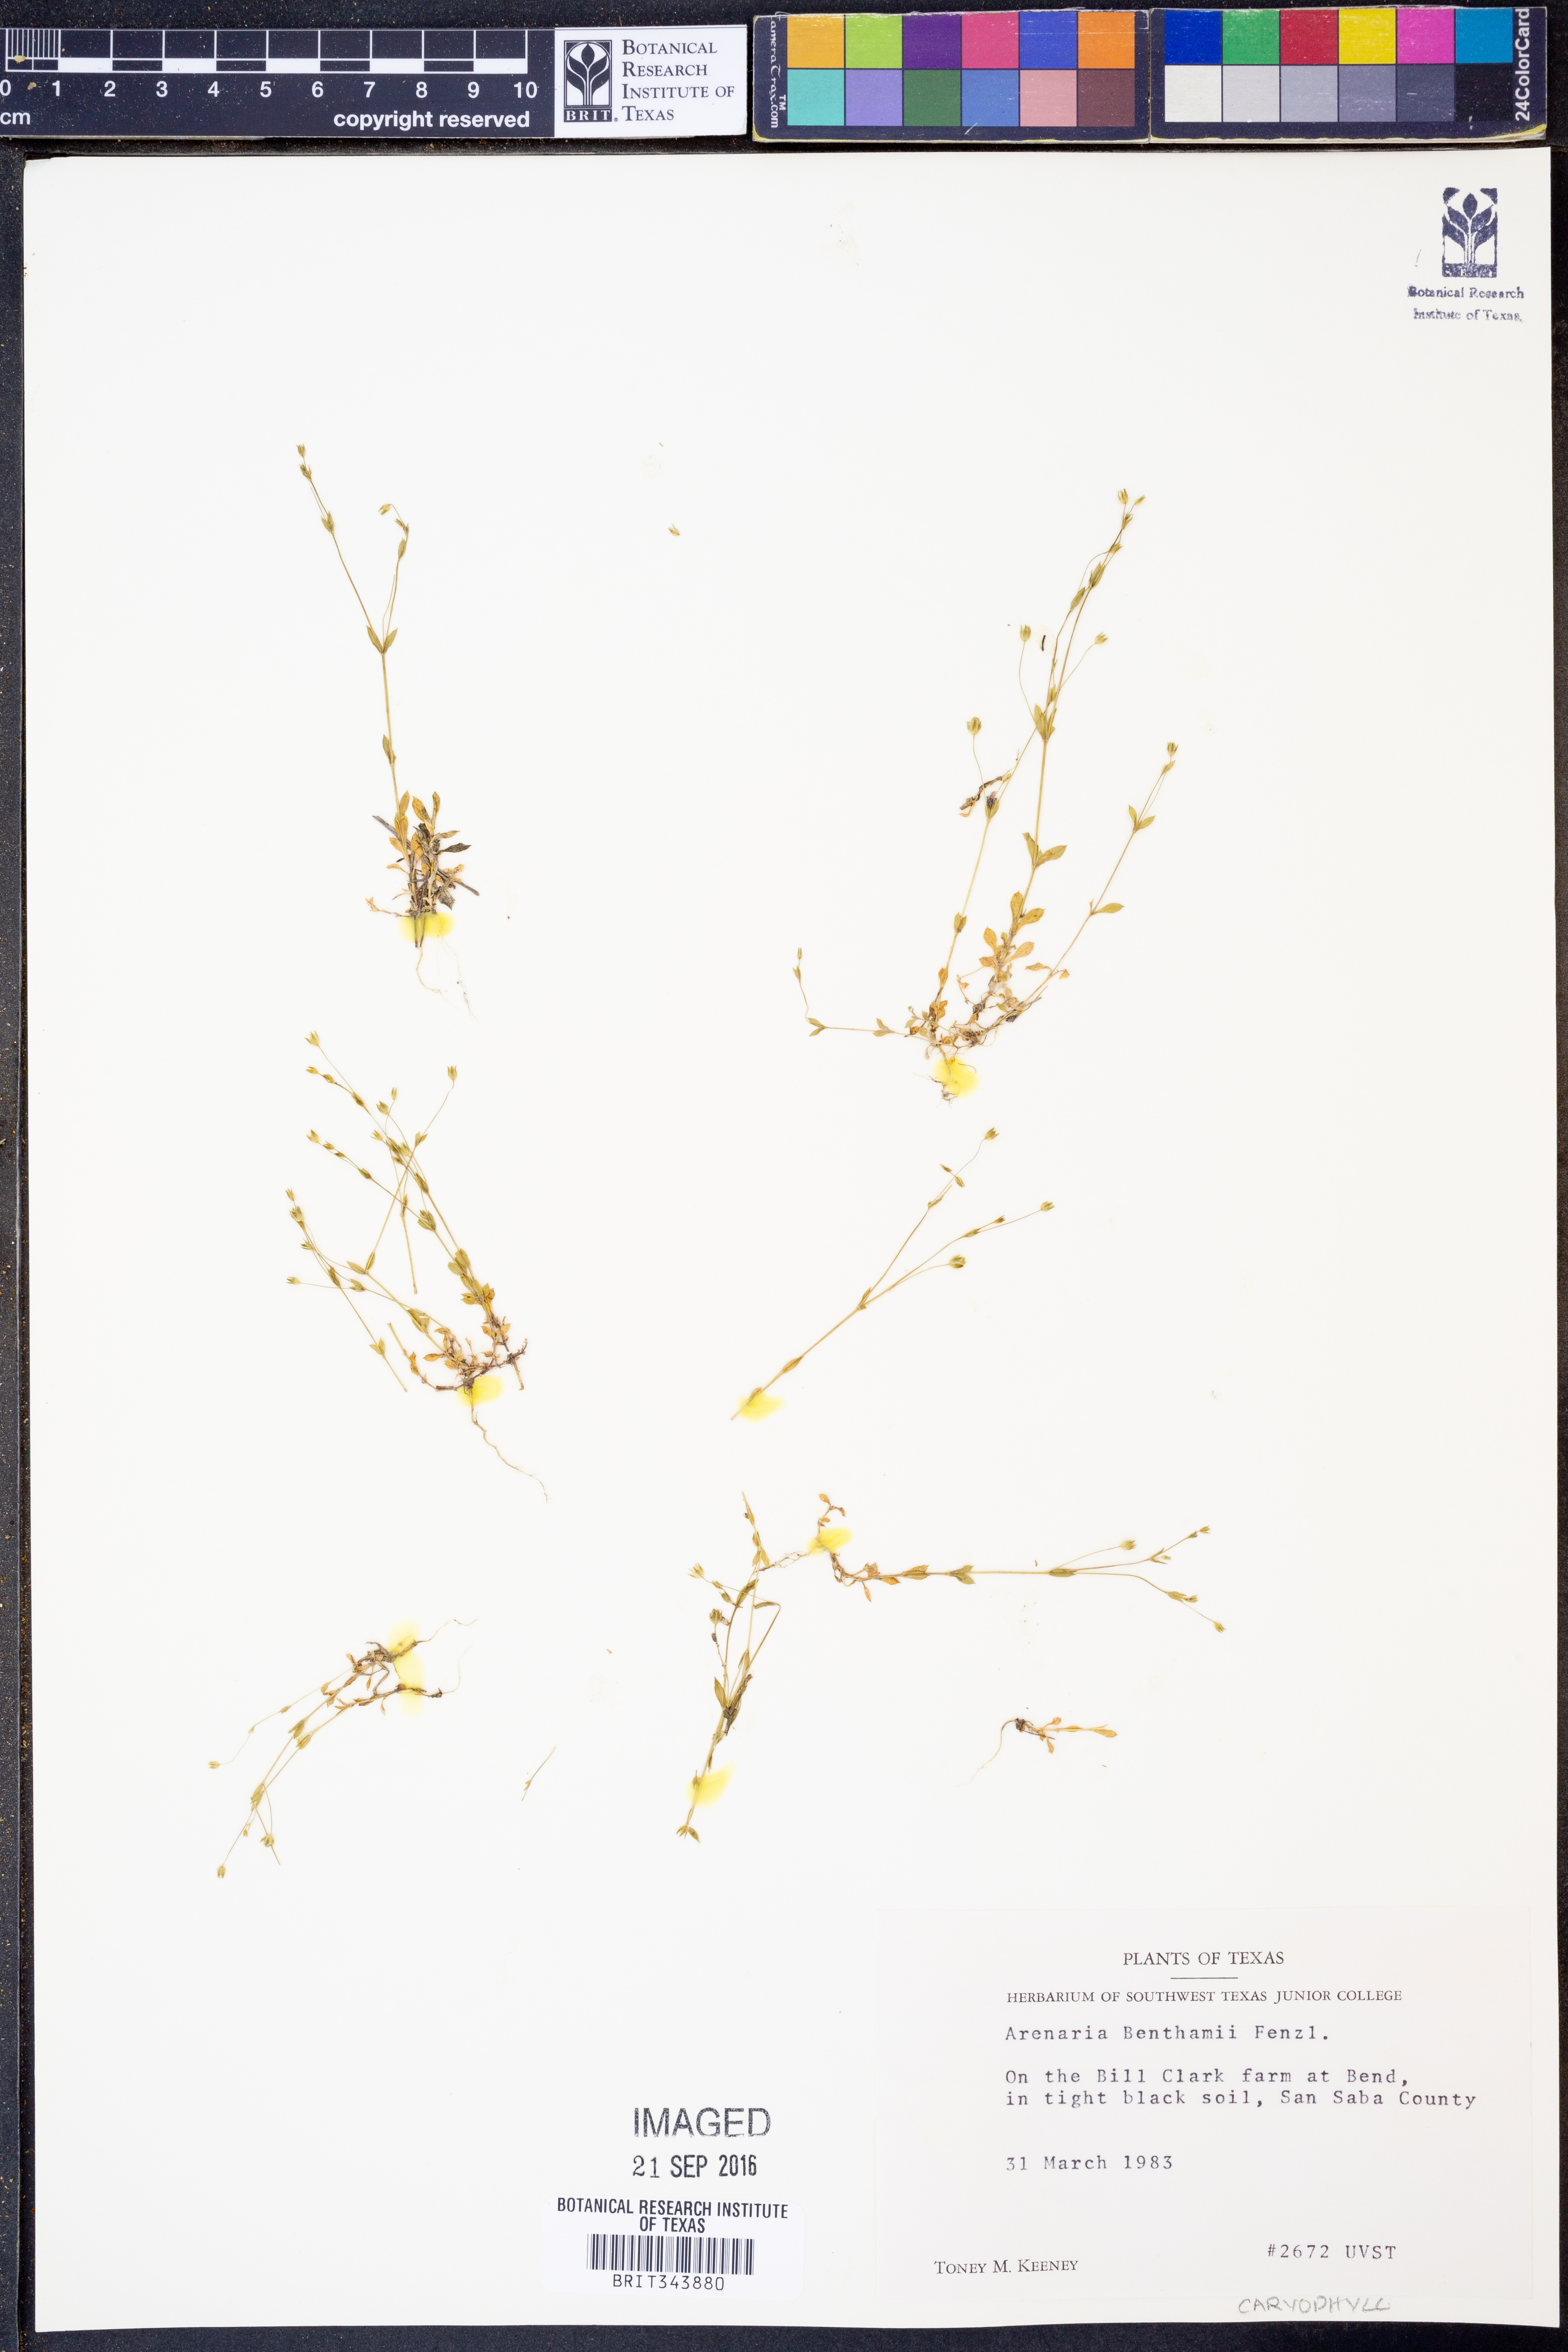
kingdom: Plantae
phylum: Tracheophyta
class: Magnoliopsida
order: Caryophyllales
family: Caryophyllaceae
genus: Arenaria
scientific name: Arenaria benthamii
